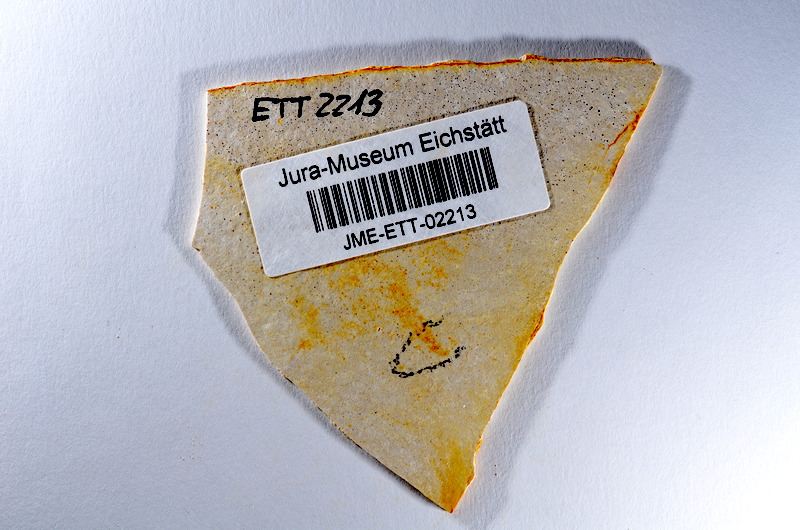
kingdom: Animalia
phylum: Chordata
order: Salmoniformes
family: Orthogonikleithridae
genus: Orthogonikleithrus
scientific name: Orthogonikleithrus hoelli
